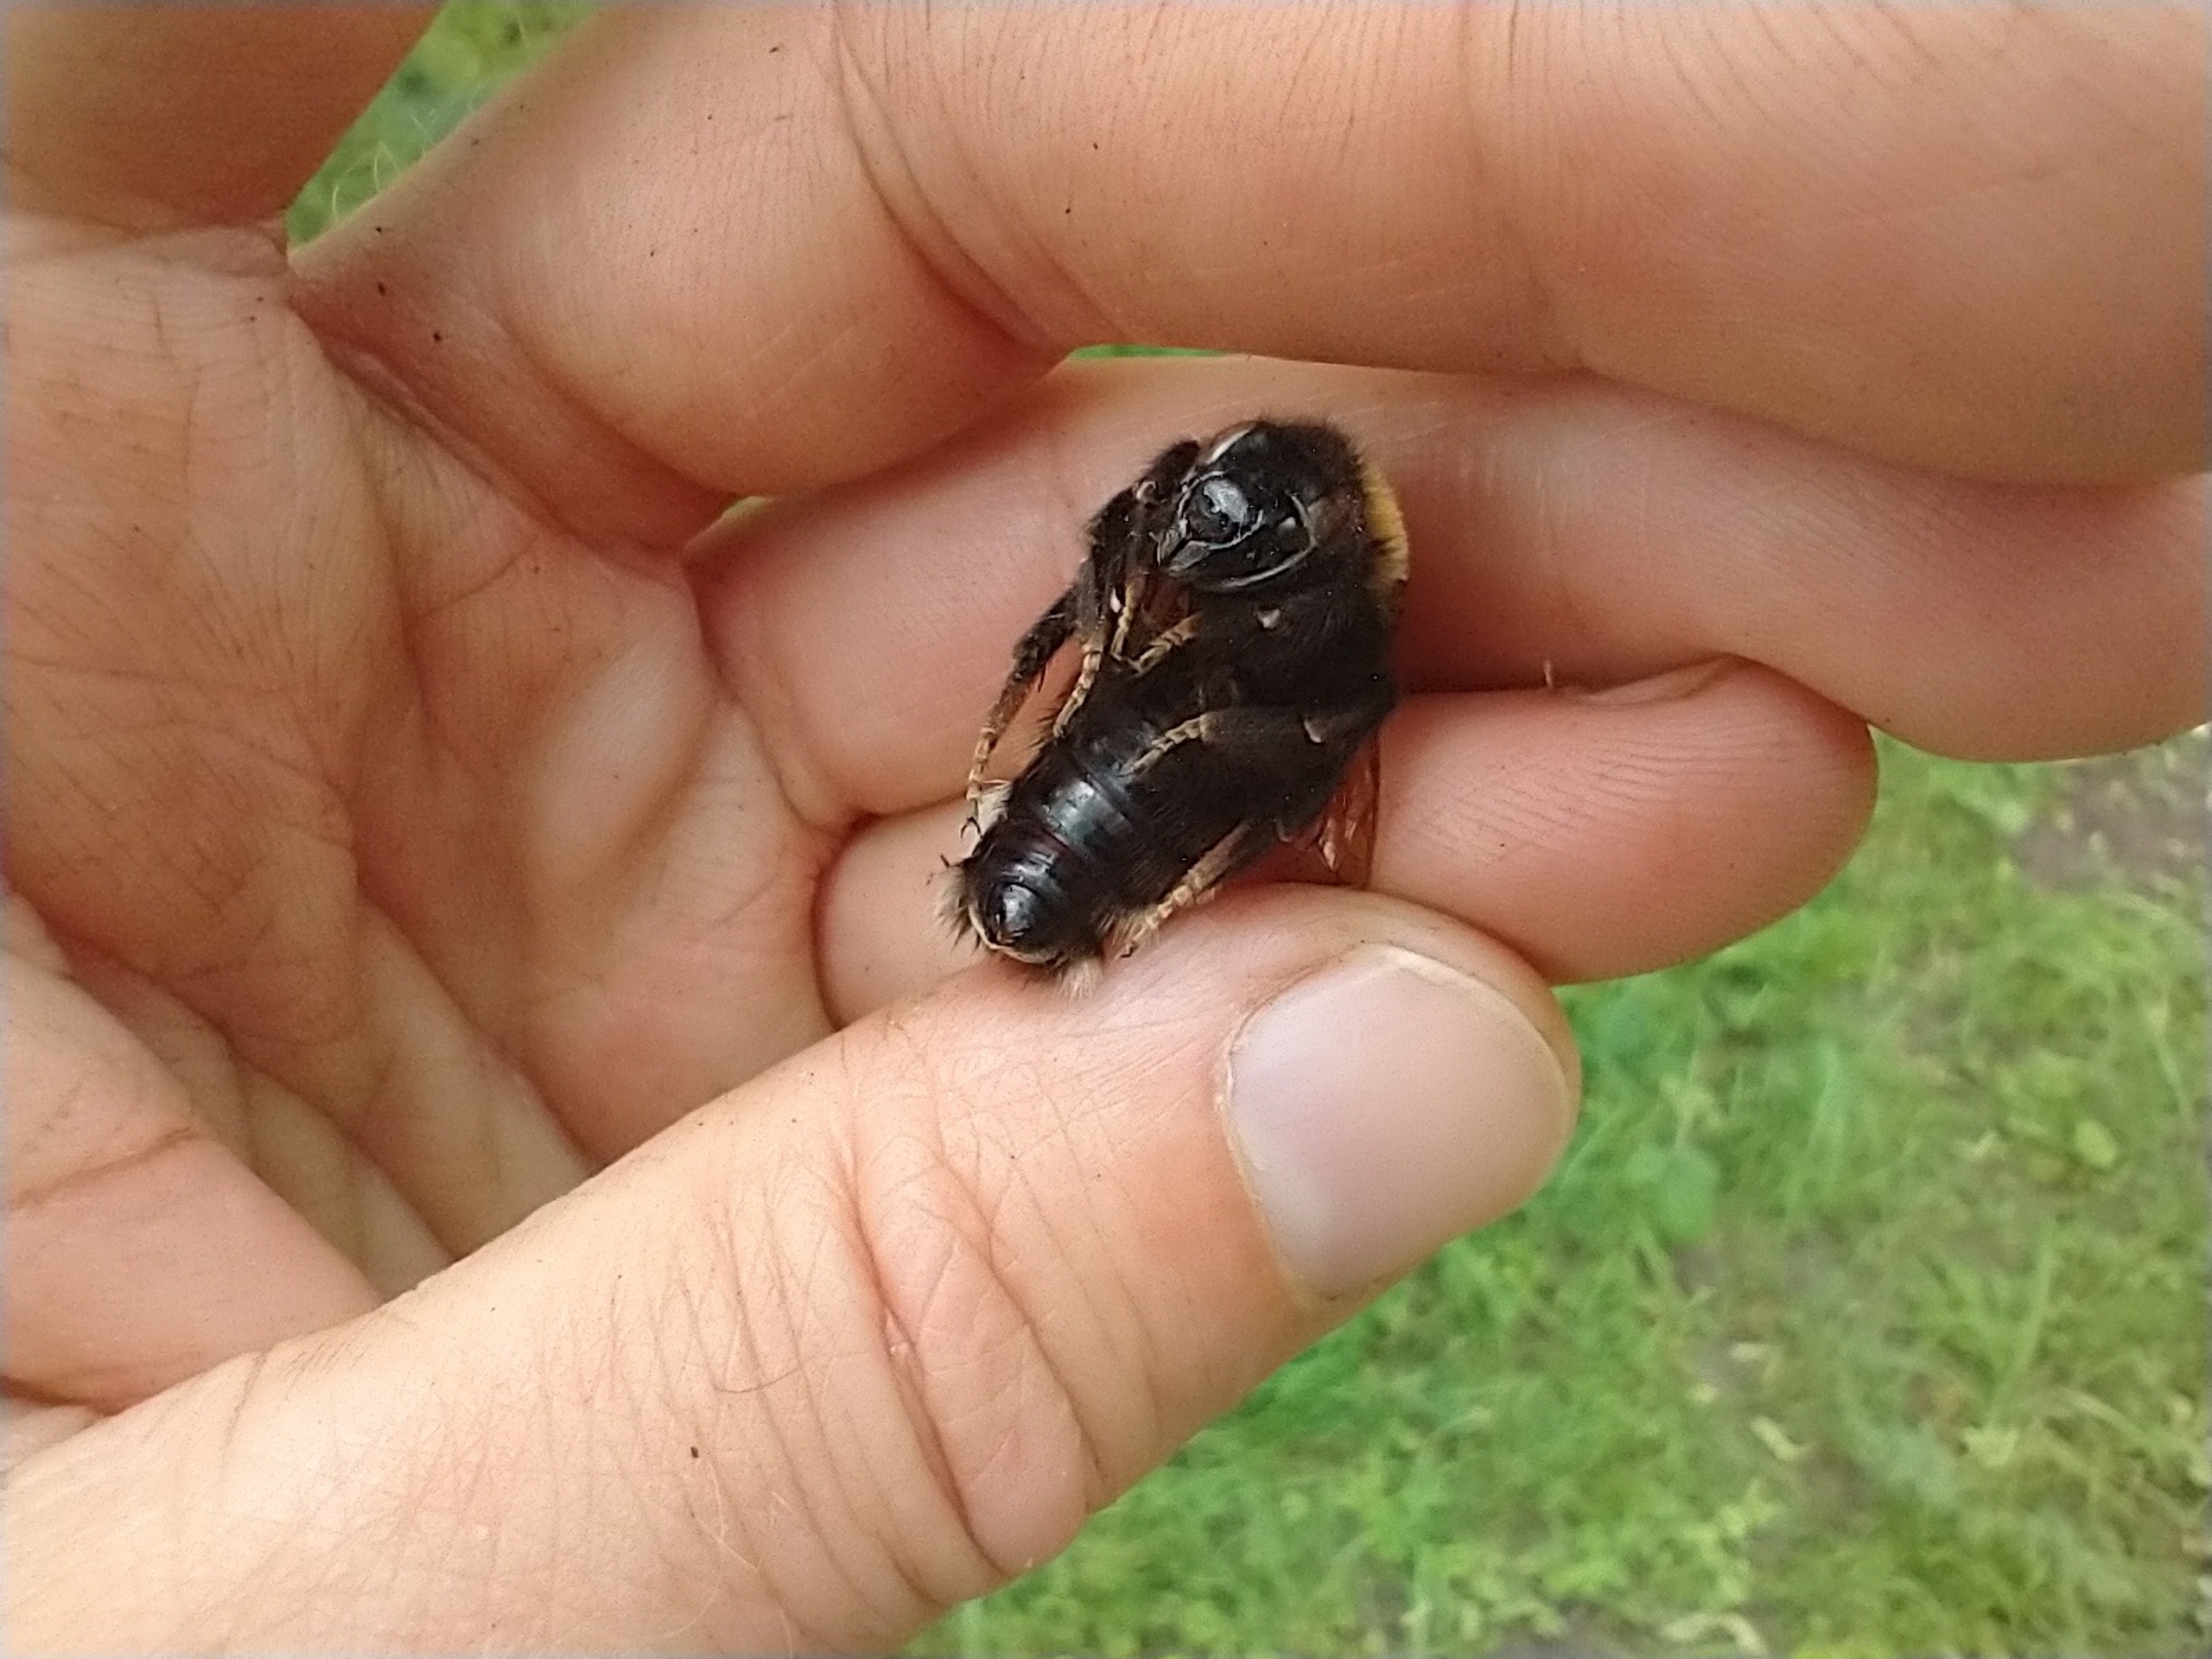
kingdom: Animalia
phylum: Arthropoda
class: Insecta
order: Hymenoptera
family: Apidae
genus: Bombus
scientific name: Bombus vestalis
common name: Mørk jordsnyltehumle
